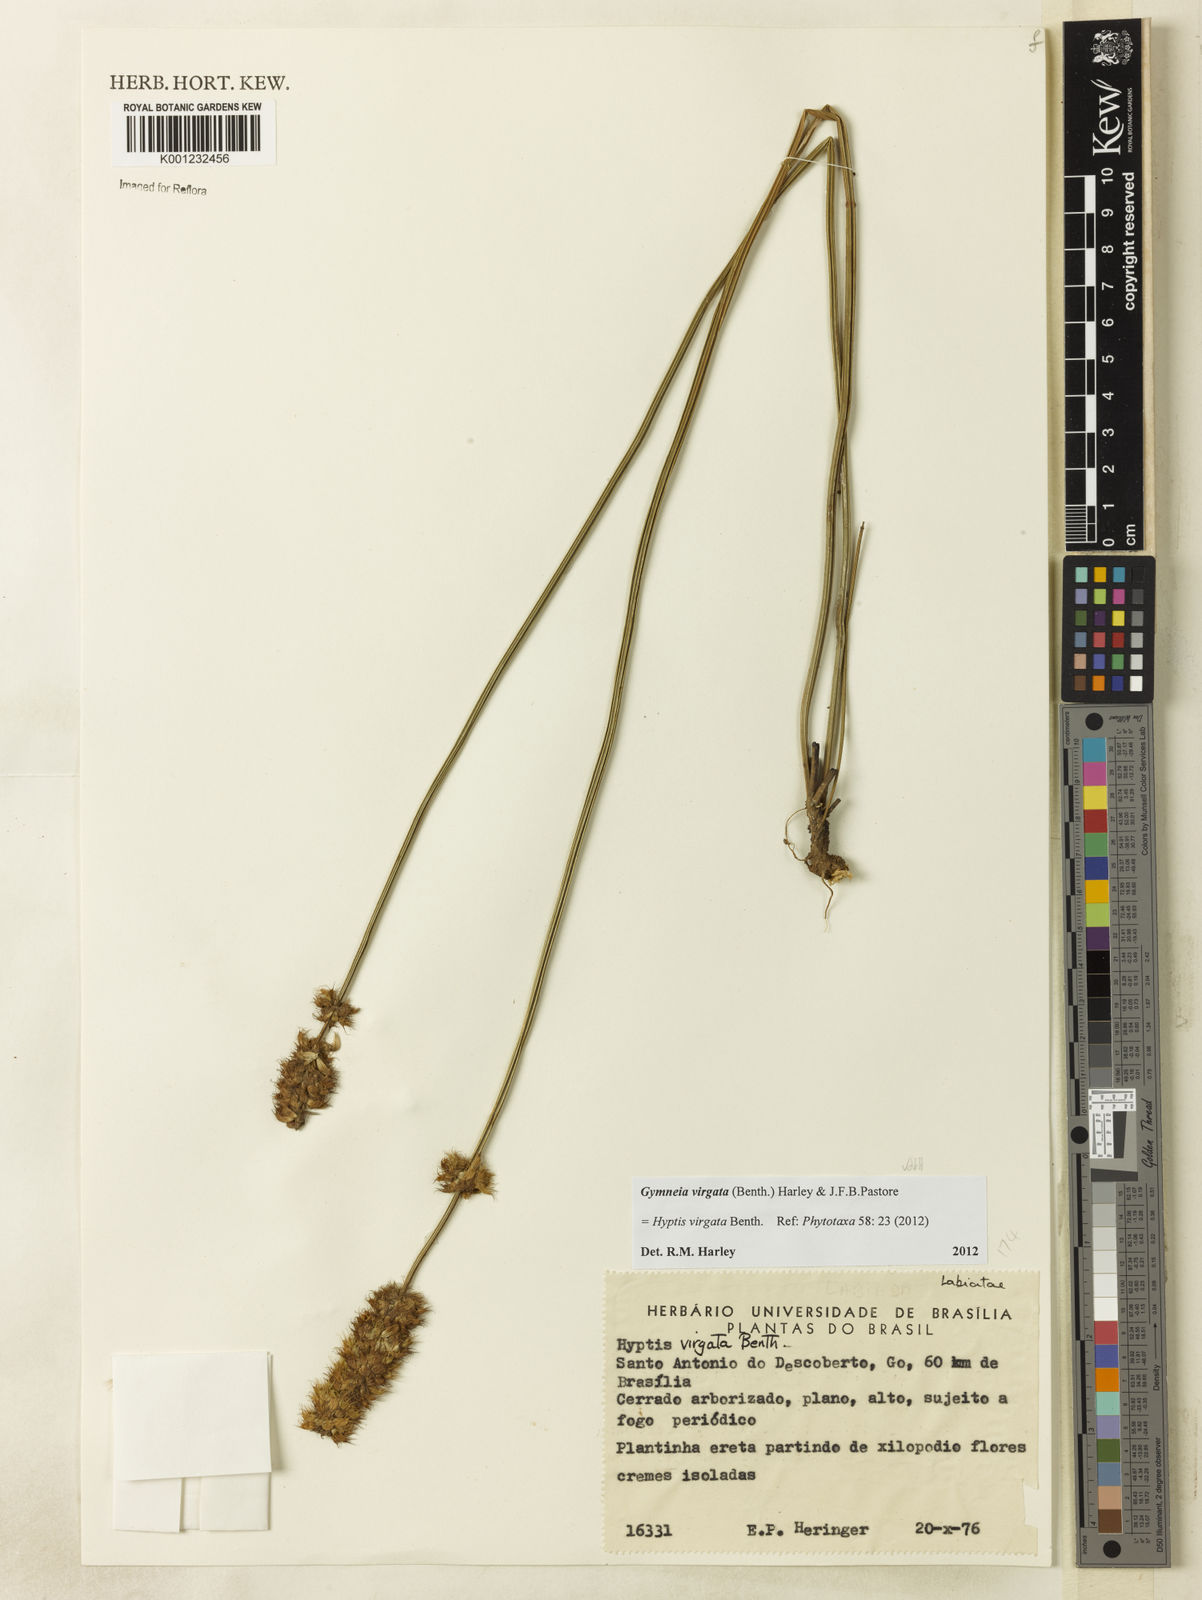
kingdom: Plantae
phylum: Tracheophyta
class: Magnoliopsida
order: Lamiales
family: Lamiaceae
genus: Gymneia
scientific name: Gymneia virgata
